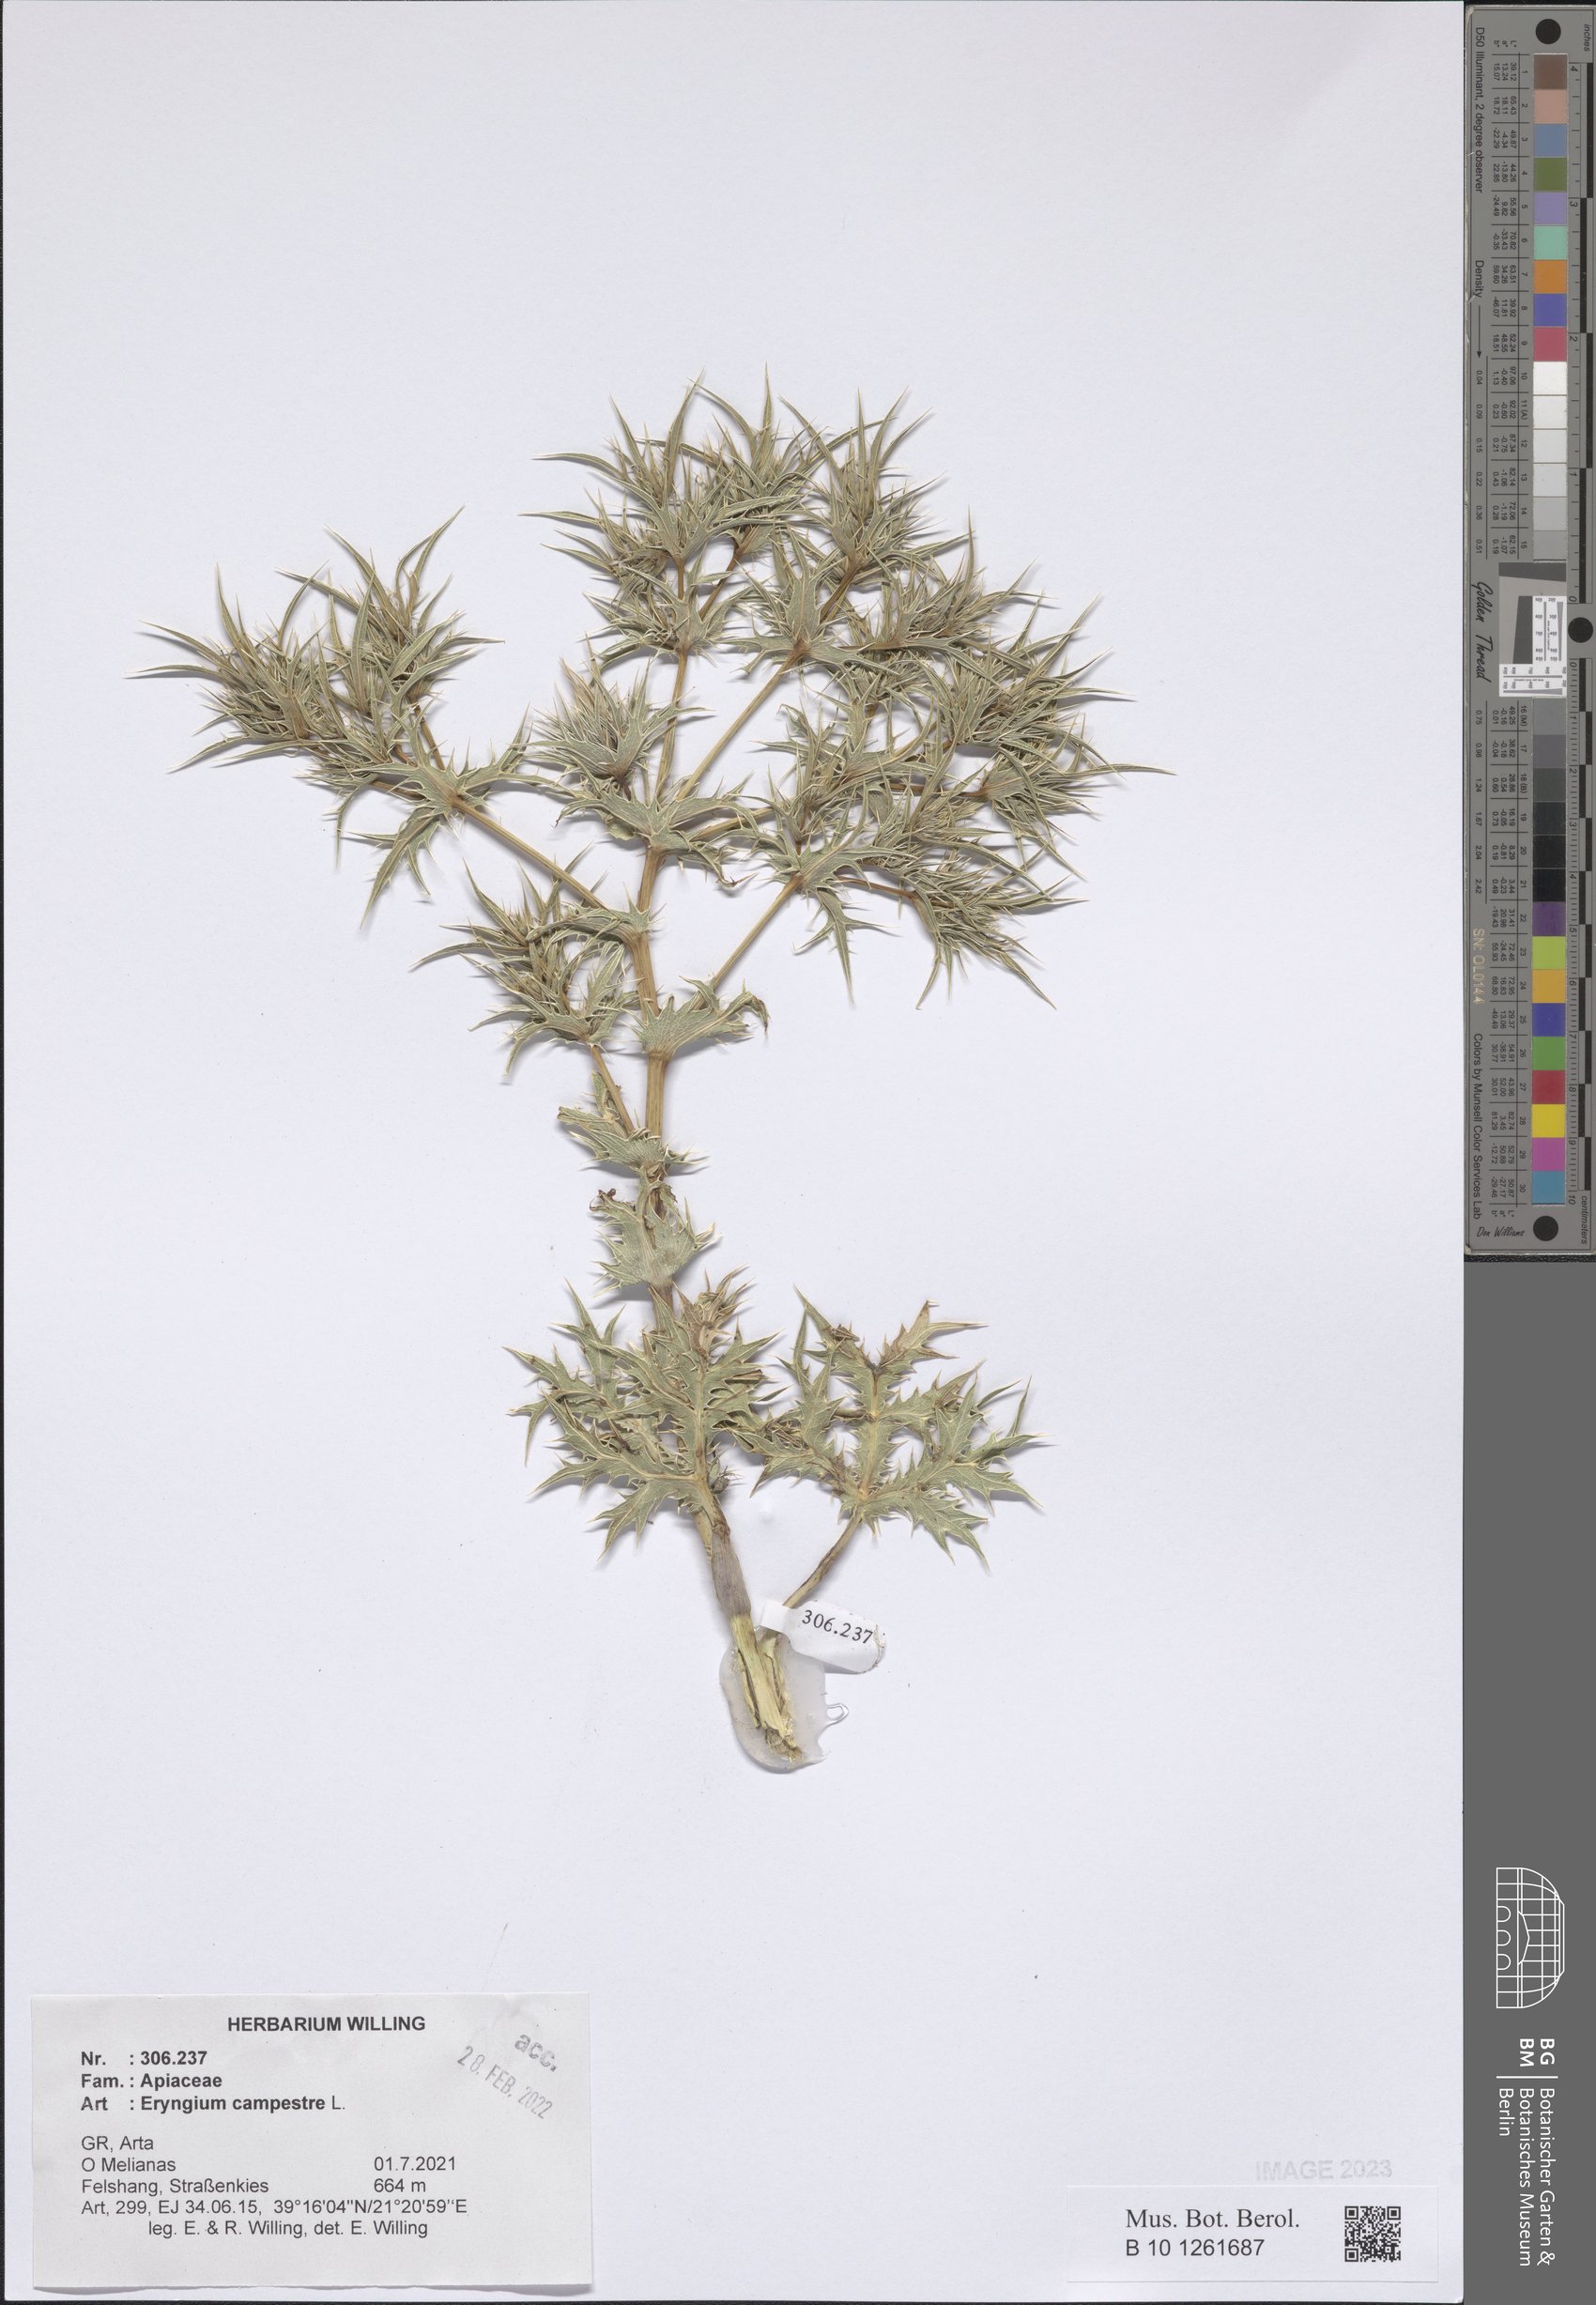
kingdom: Plantae
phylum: Tracheophyta
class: Magnoliopsida
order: Apiales
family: Apiaceae
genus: Eryngium
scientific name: Eryngium campestre
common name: Field eryngo
